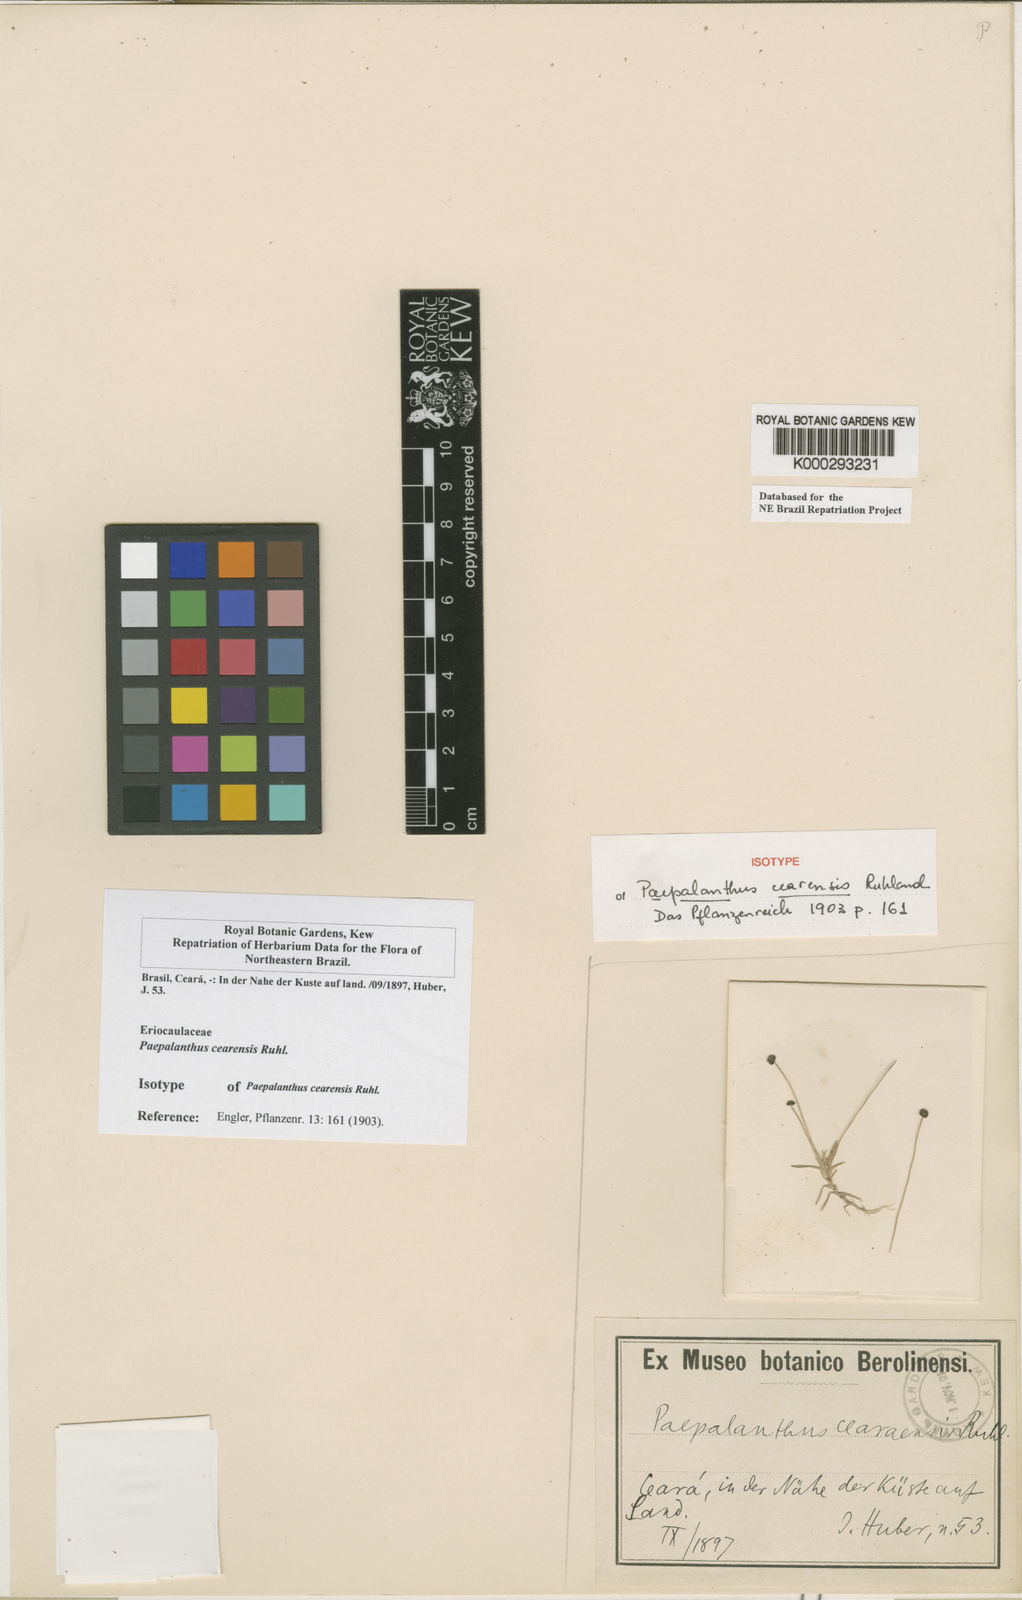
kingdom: Plantae
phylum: Tracheophyta
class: Liliopsida
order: Poales
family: Eriocaulaceae
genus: Paepalanthus
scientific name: Paepalanthus lamarckii
